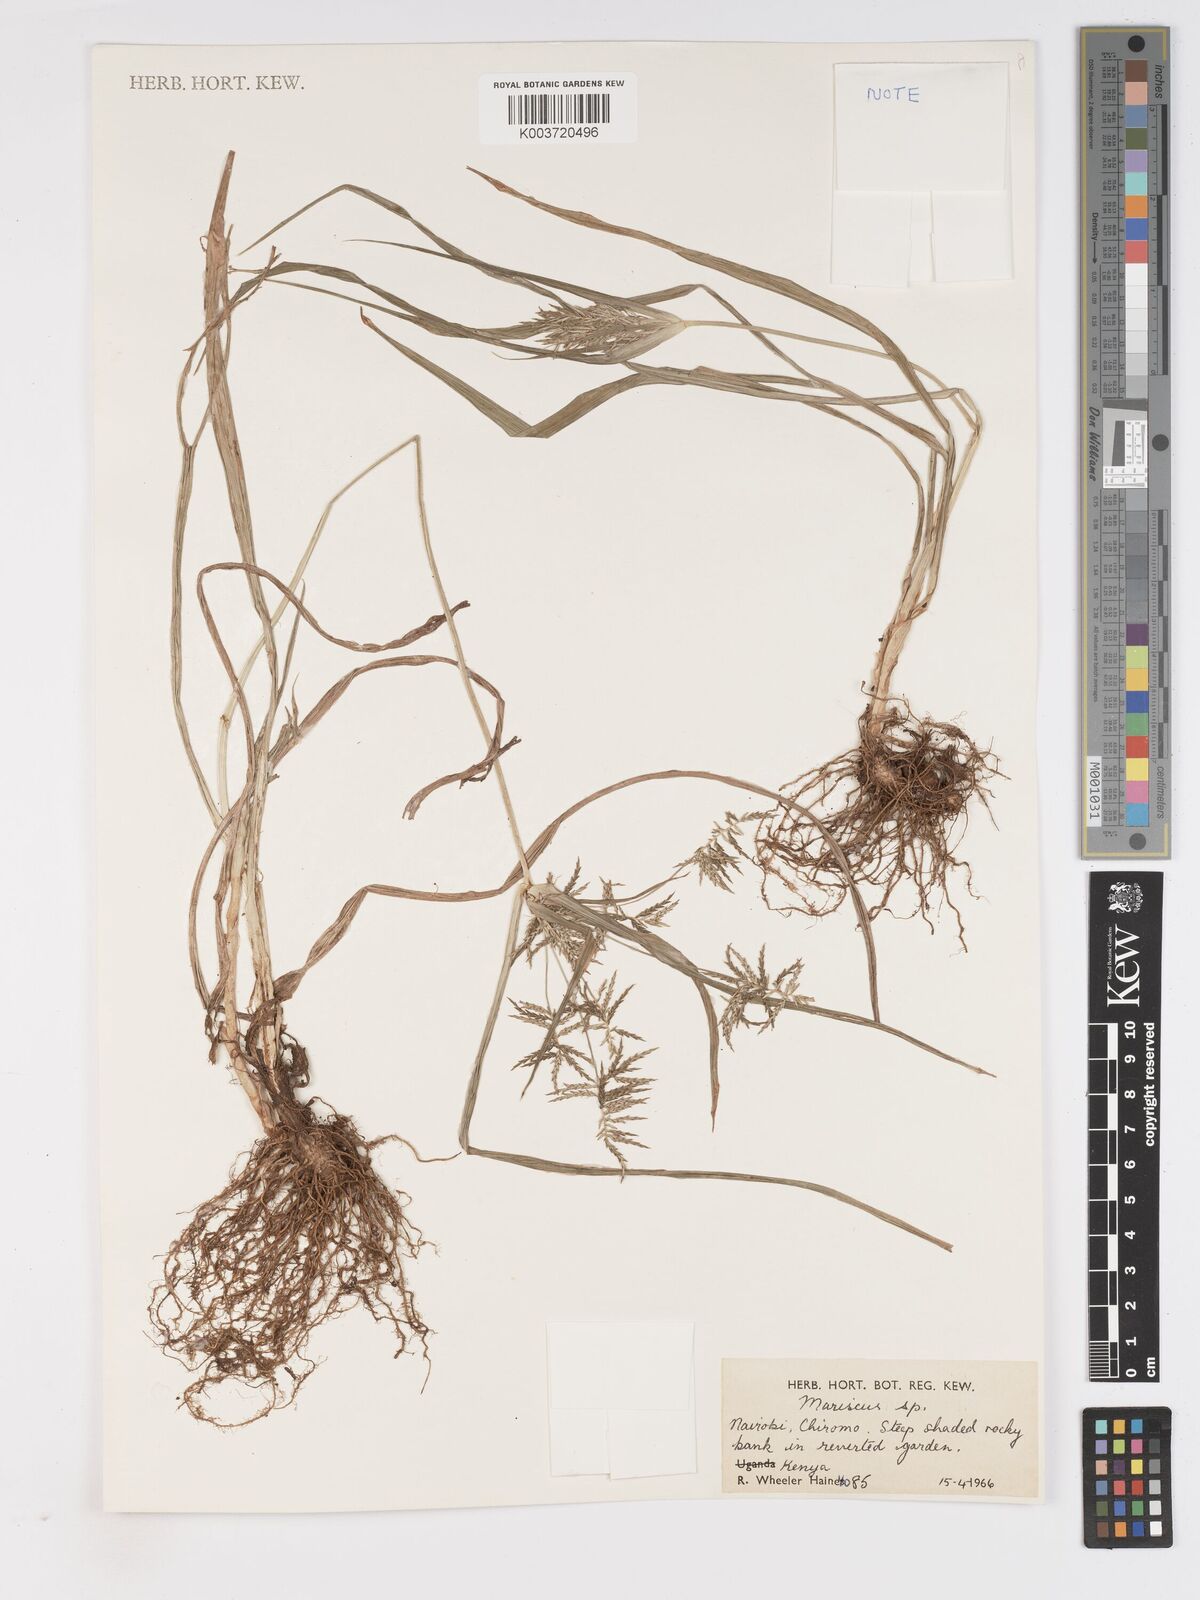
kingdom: Plantae
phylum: Tracheophyta
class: Liliopsida
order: Poales
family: Cyperaceae
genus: Cyperus
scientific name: Cyperus hemisphaericus
